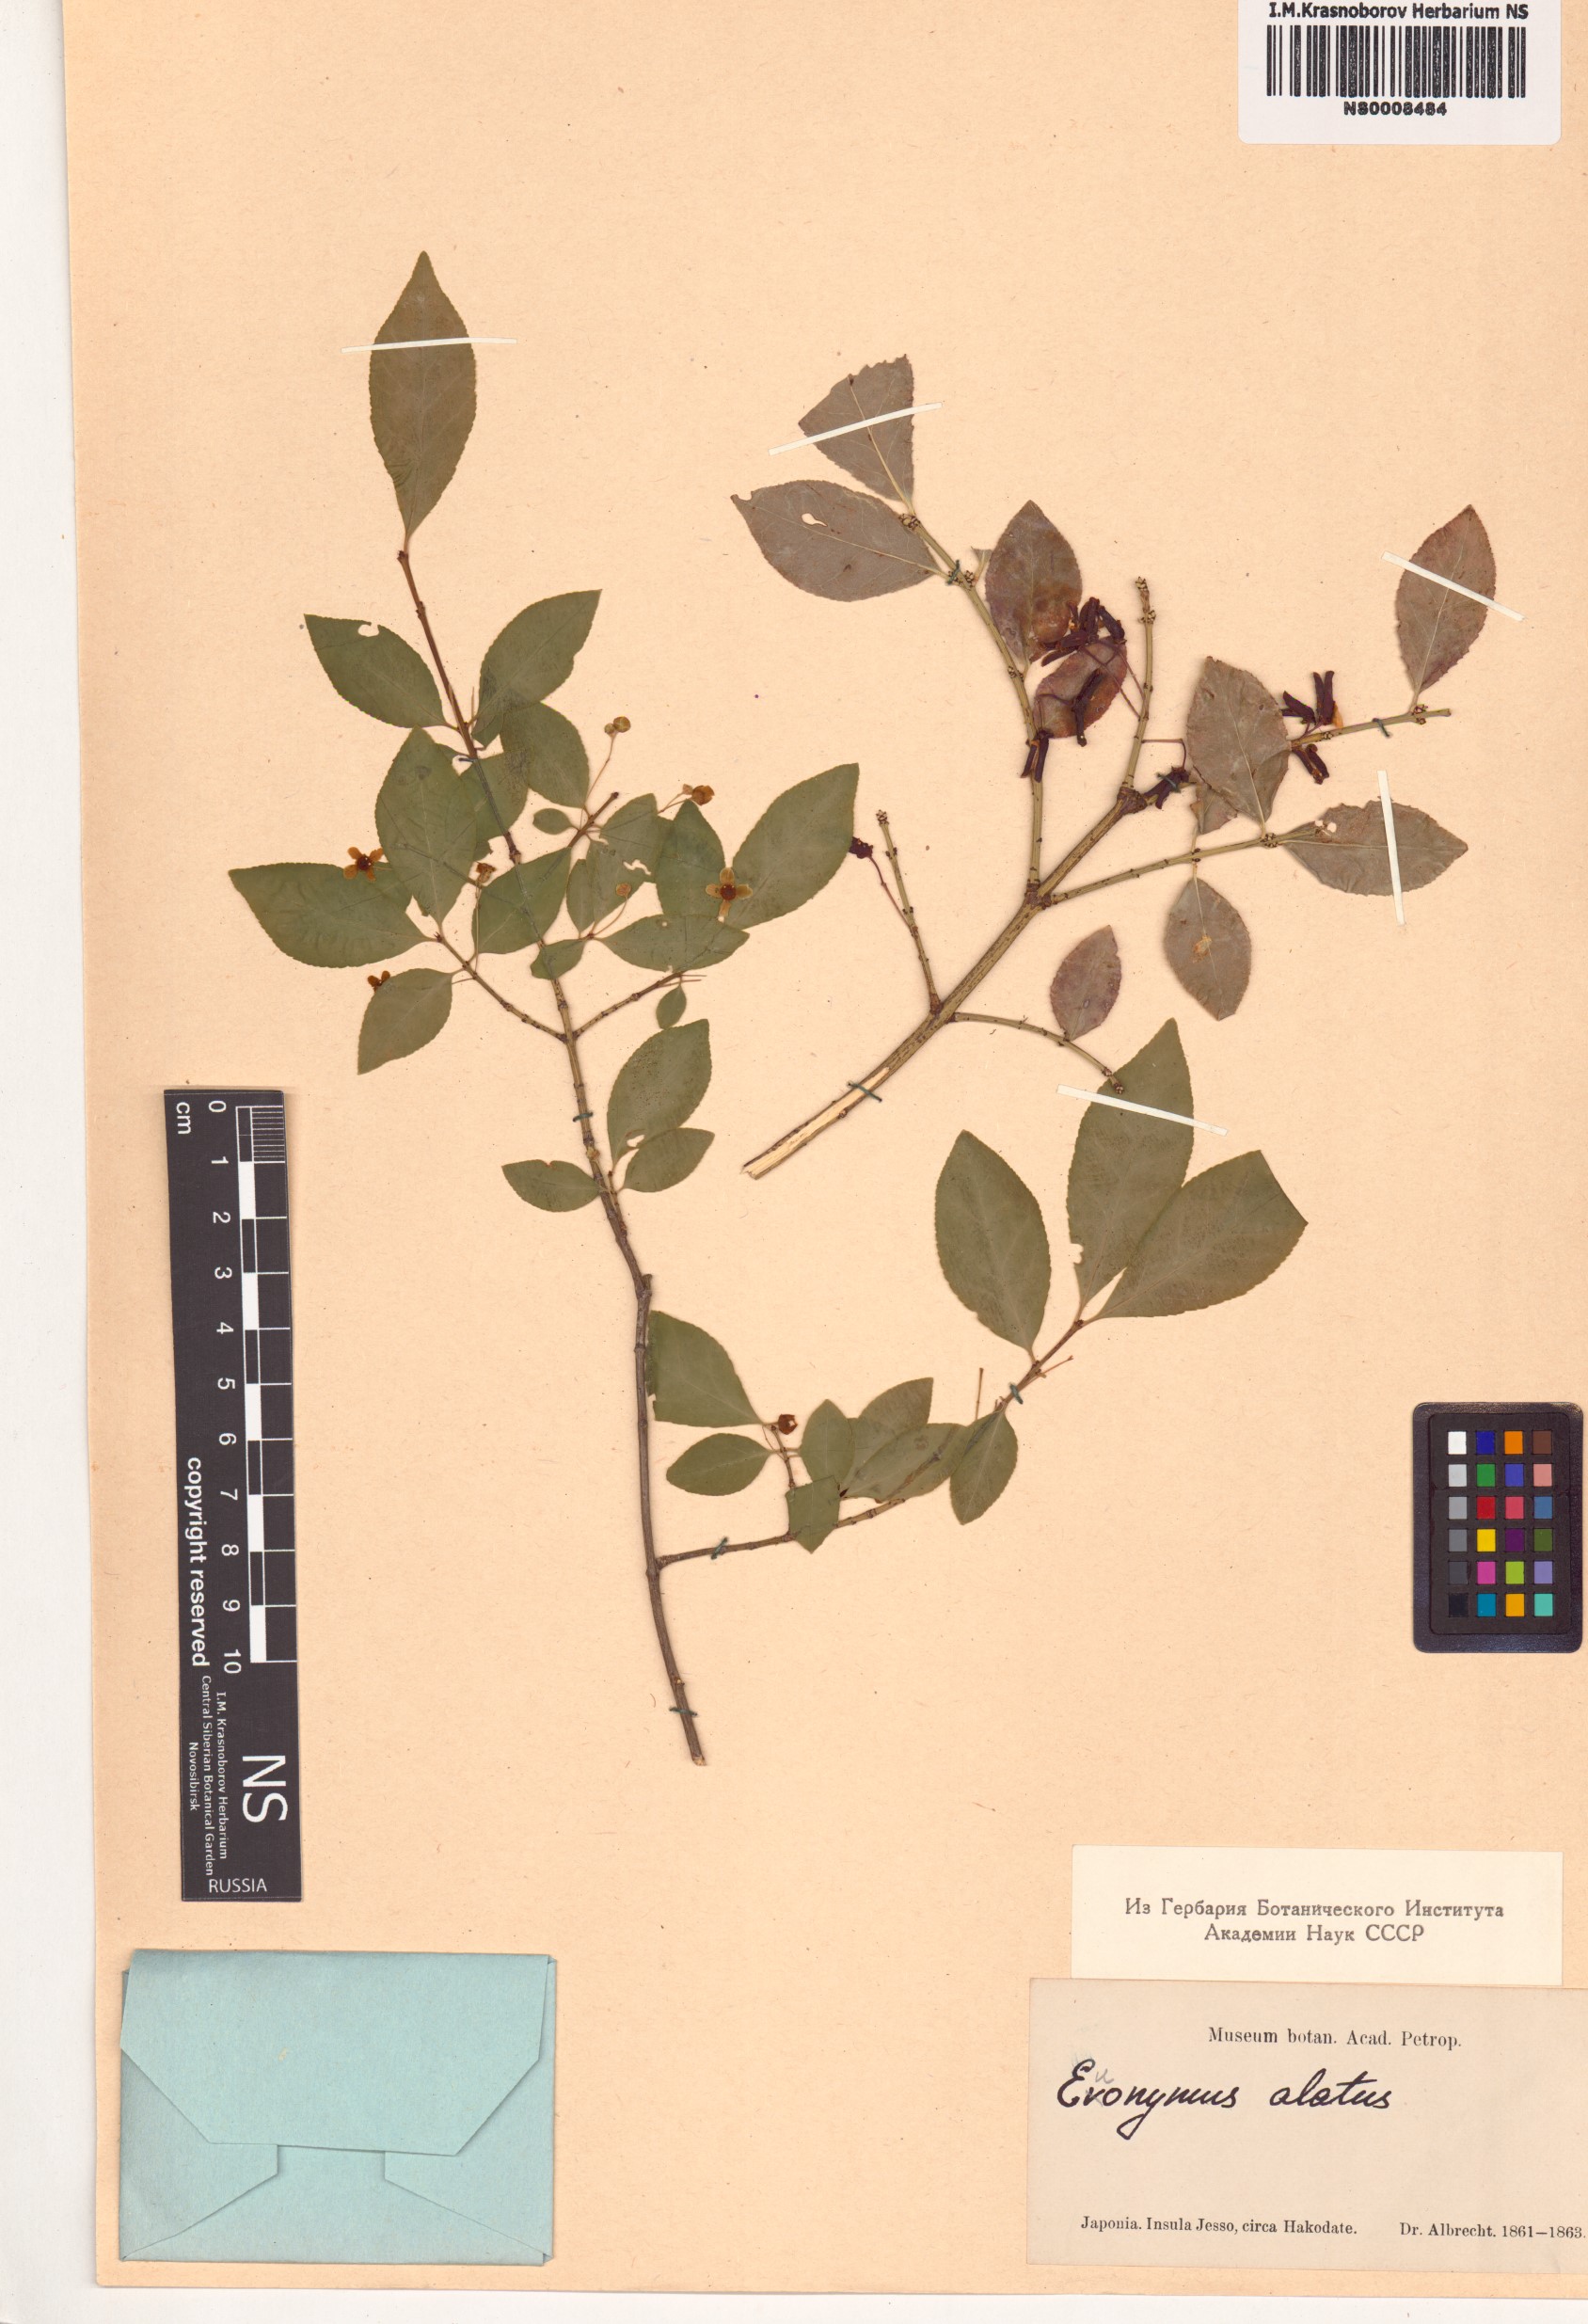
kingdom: Plantae
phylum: Tracheophyta
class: Magnoliopsida
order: Celastrales
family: Celastraceae
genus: Euonymus
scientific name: Euonymus alatus
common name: Winged euonymus
